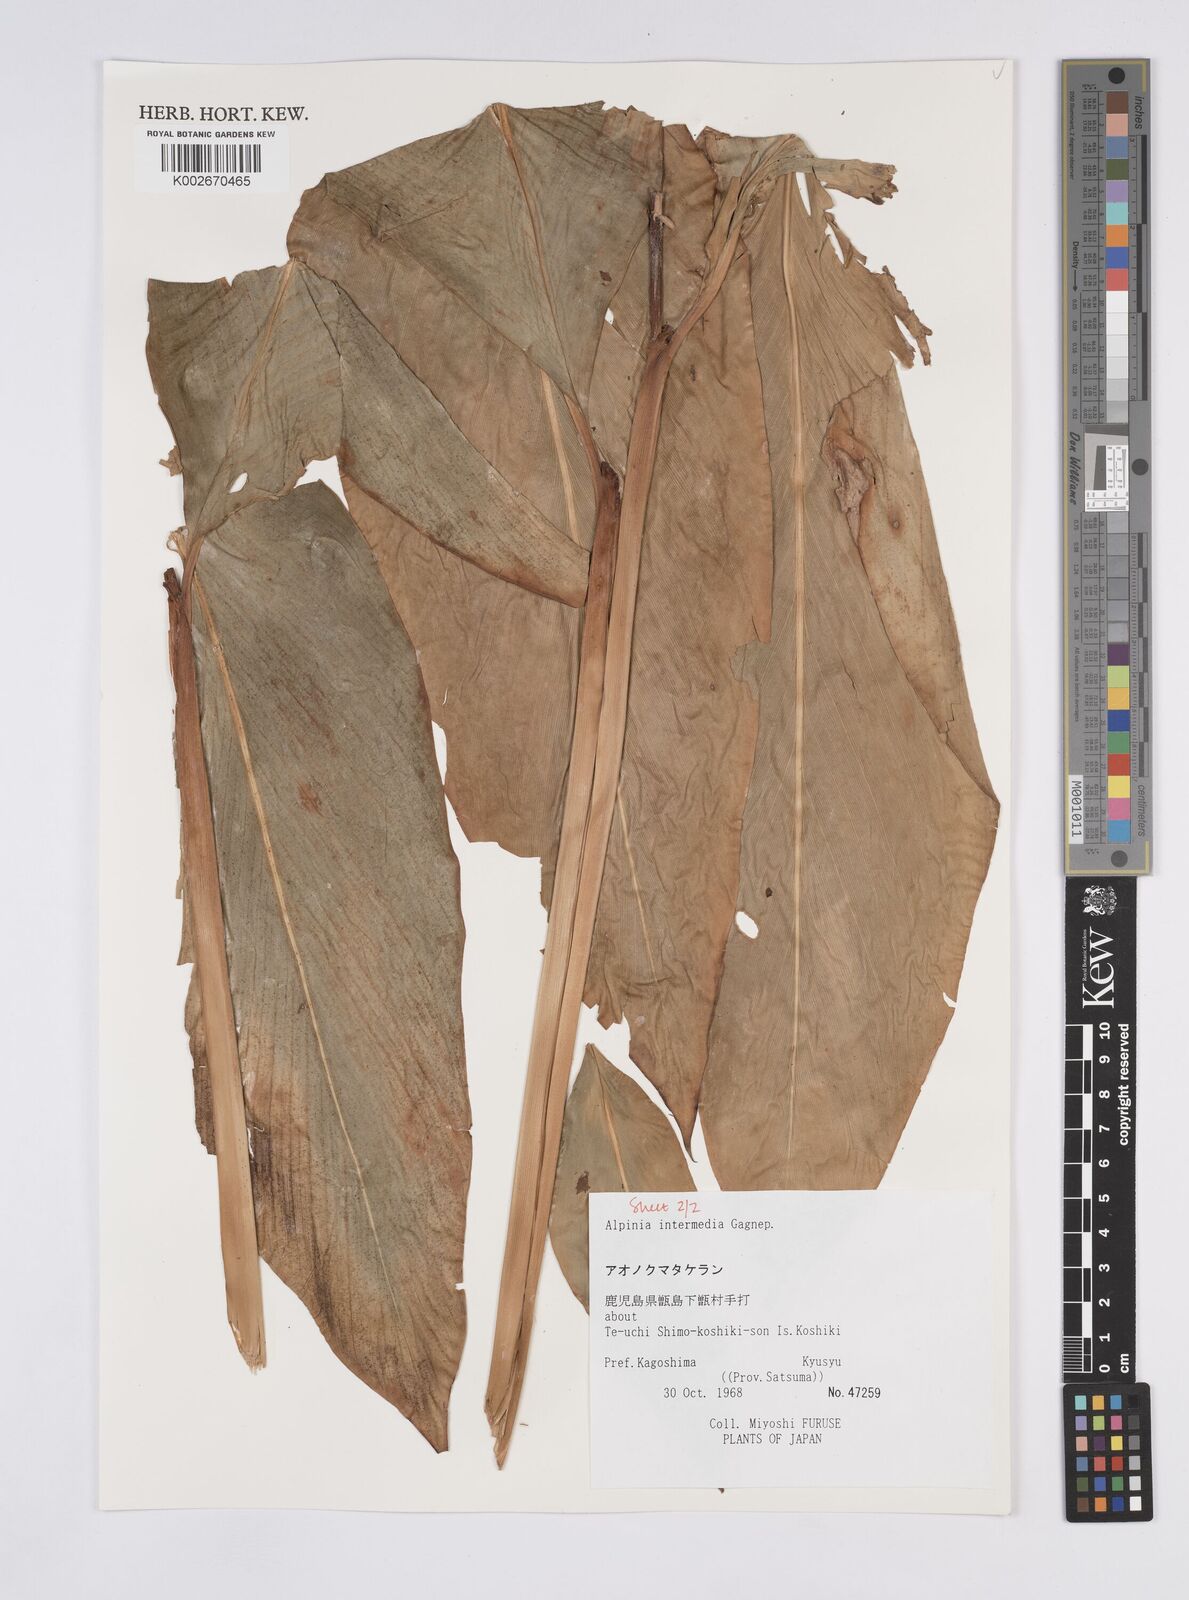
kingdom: Plantae
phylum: Tracheophyta
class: Liliopsida
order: Zingiberales
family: Zingiberaceae
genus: Alpinia
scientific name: Alpinia intermedia
